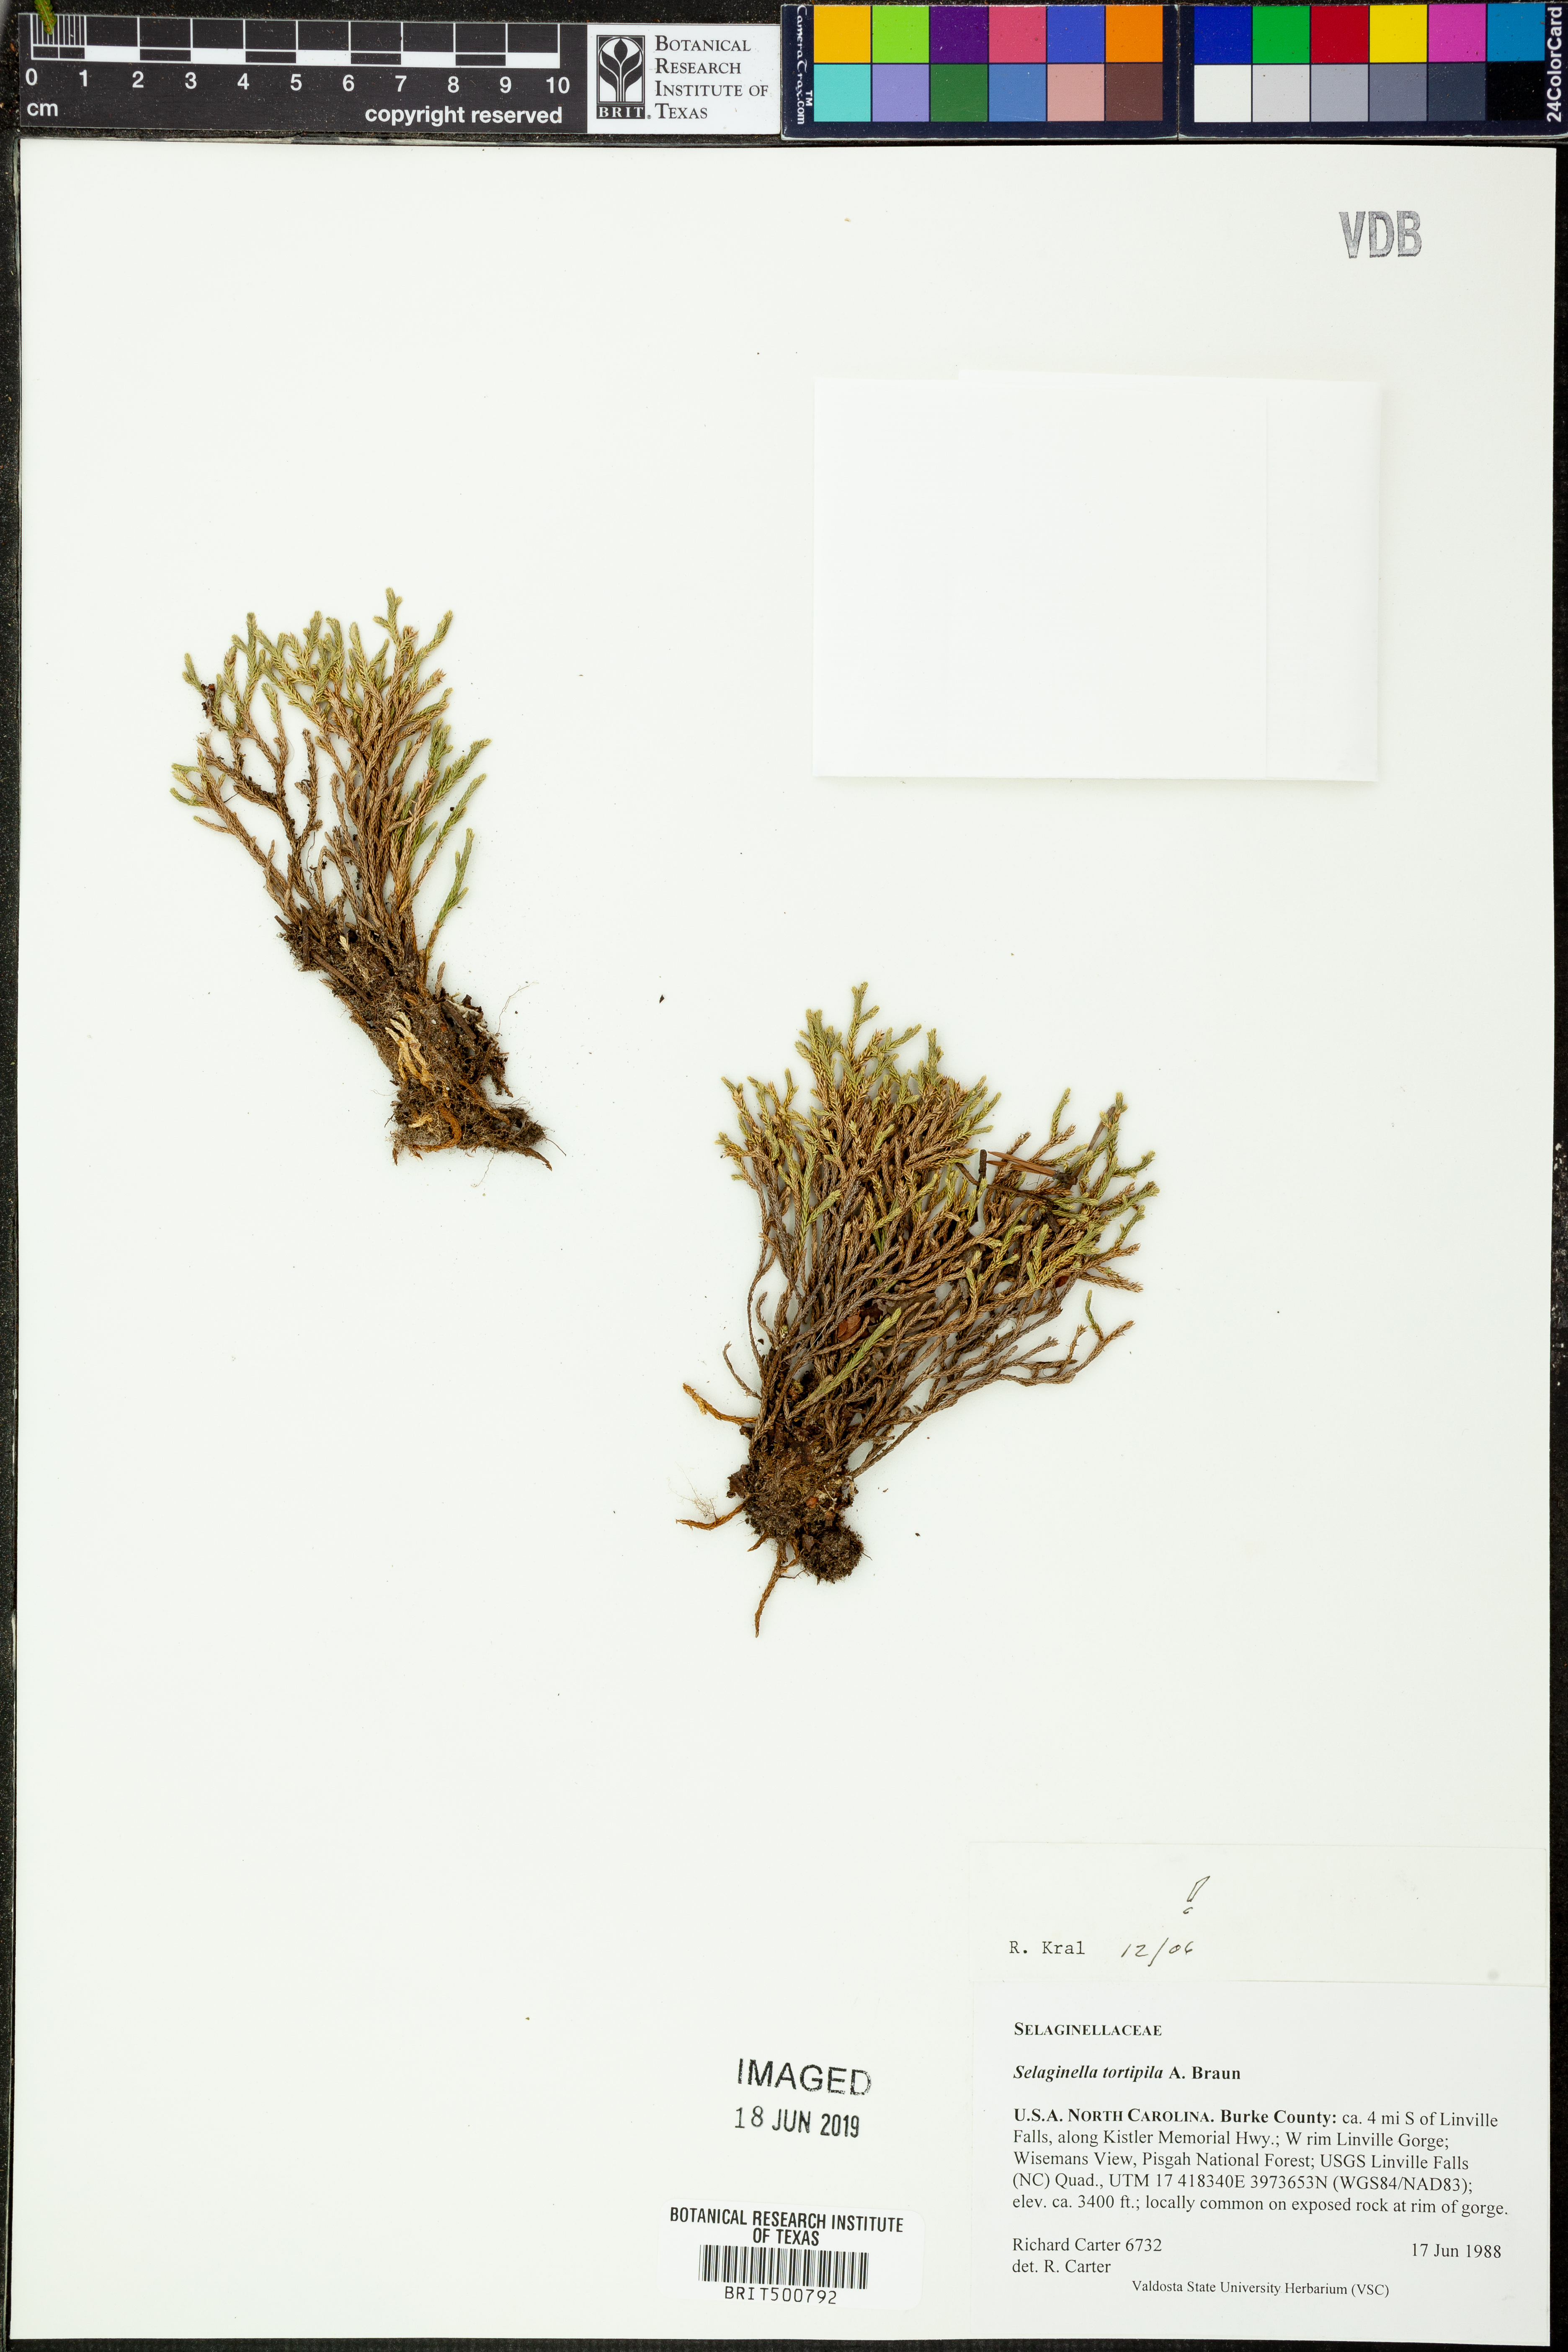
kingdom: Plantae
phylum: Tracheophyta
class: Lycopodiopsida
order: Selaginellales
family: Selaginellaceae
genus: Selaginella
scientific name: Selaginella tortipila
